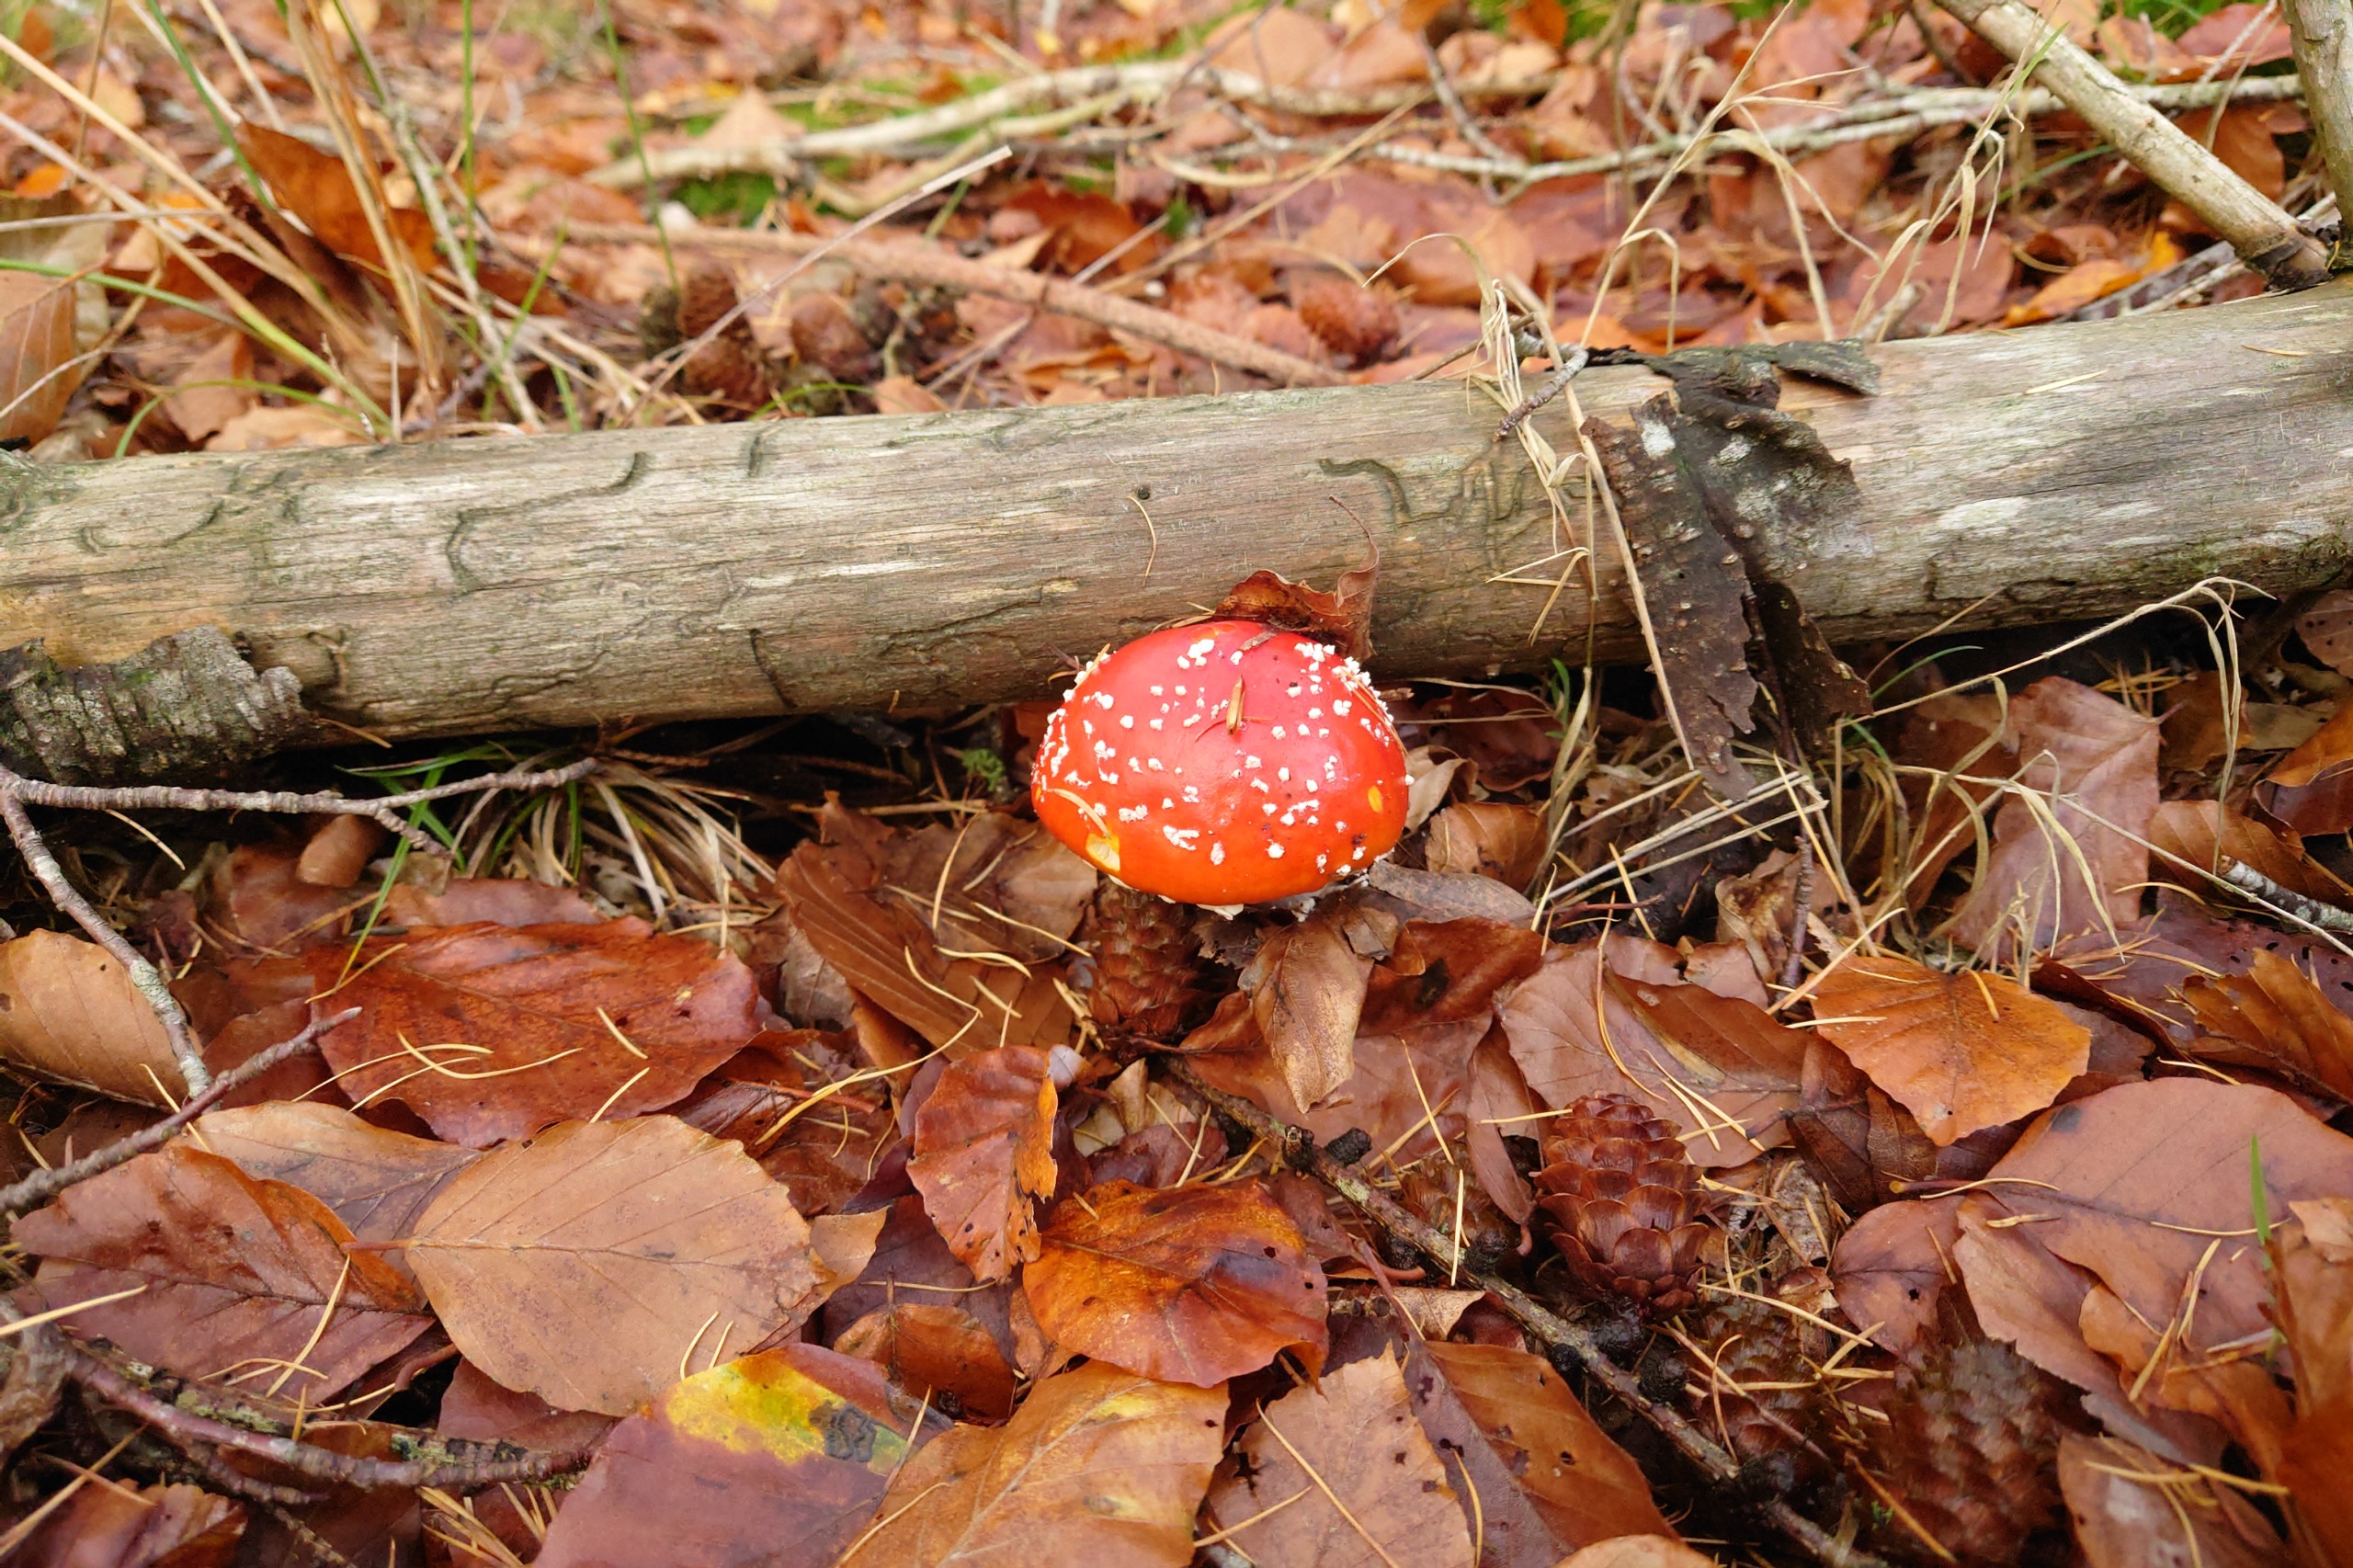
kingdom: Fungi
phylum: Basidiomycota
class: Agaricomycetes
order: Agaricales
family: Amanitaceae
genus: Amanita
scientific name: Amanita muscaria
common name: Rød fluesvamp
